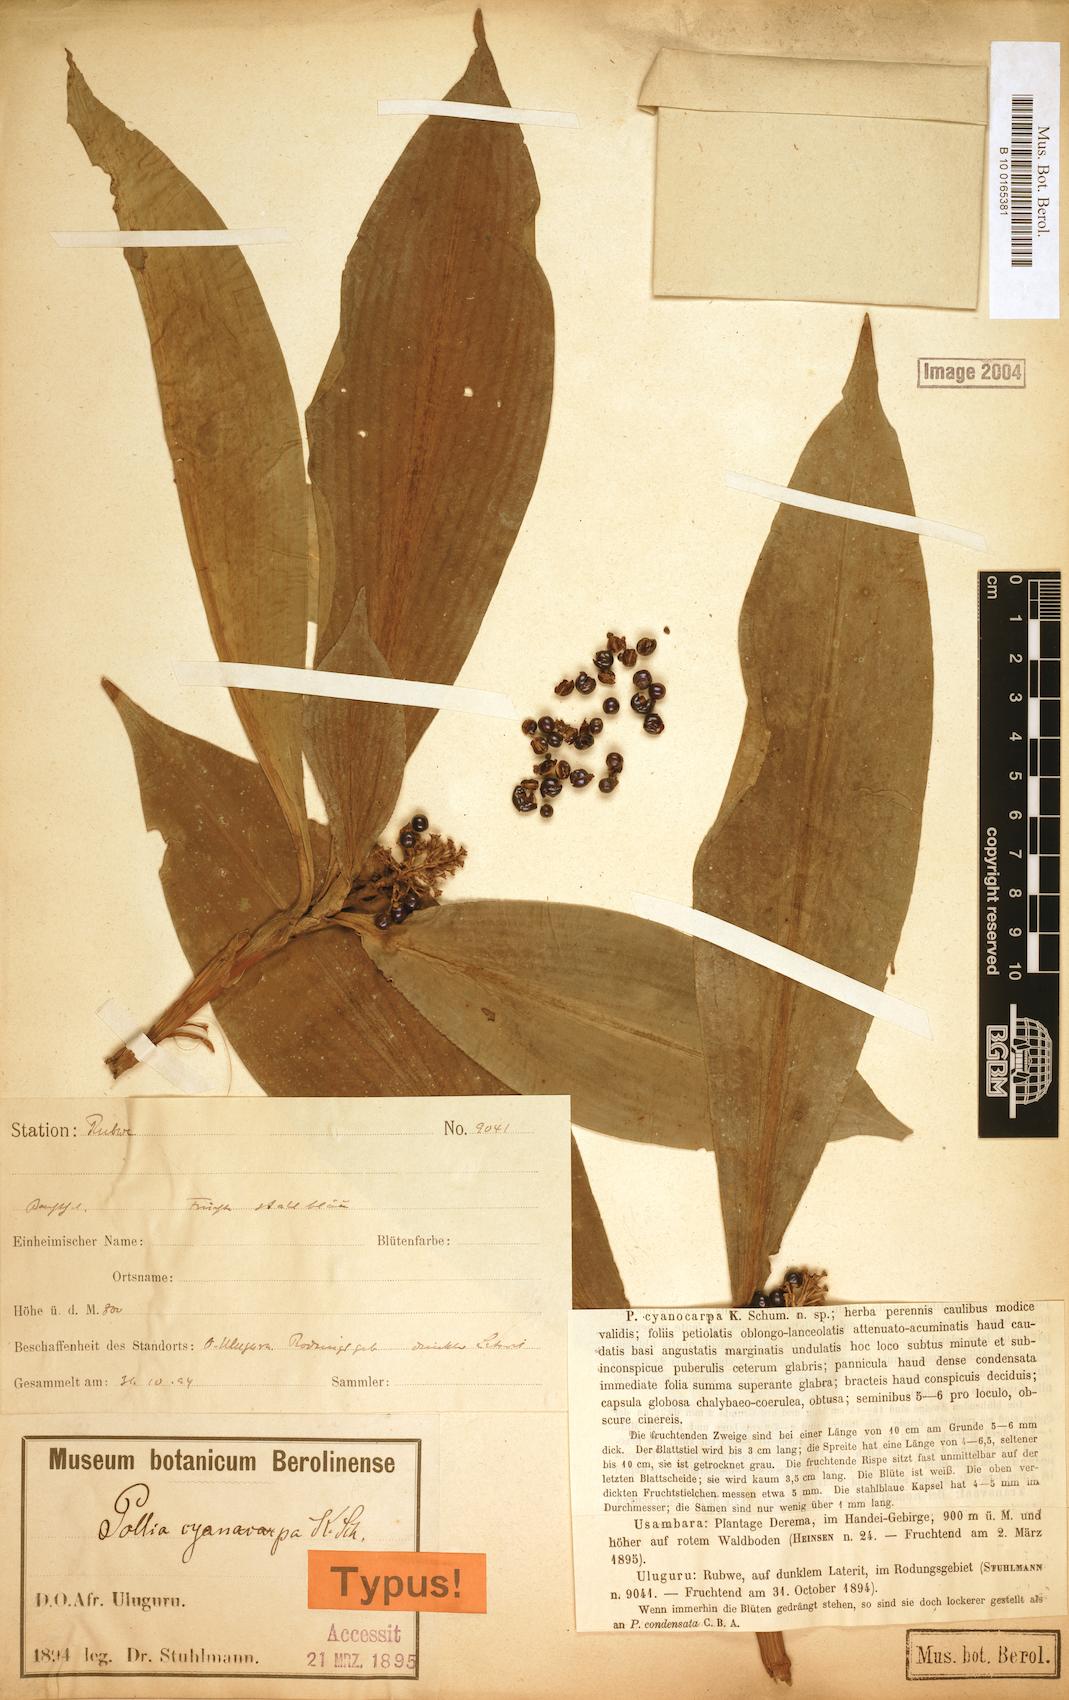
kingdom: Plantae
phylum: Tracheophyta
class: Liliopsida
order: Commelinales
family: Commelinaceae
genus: Pollia
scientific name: Pollia condensata
